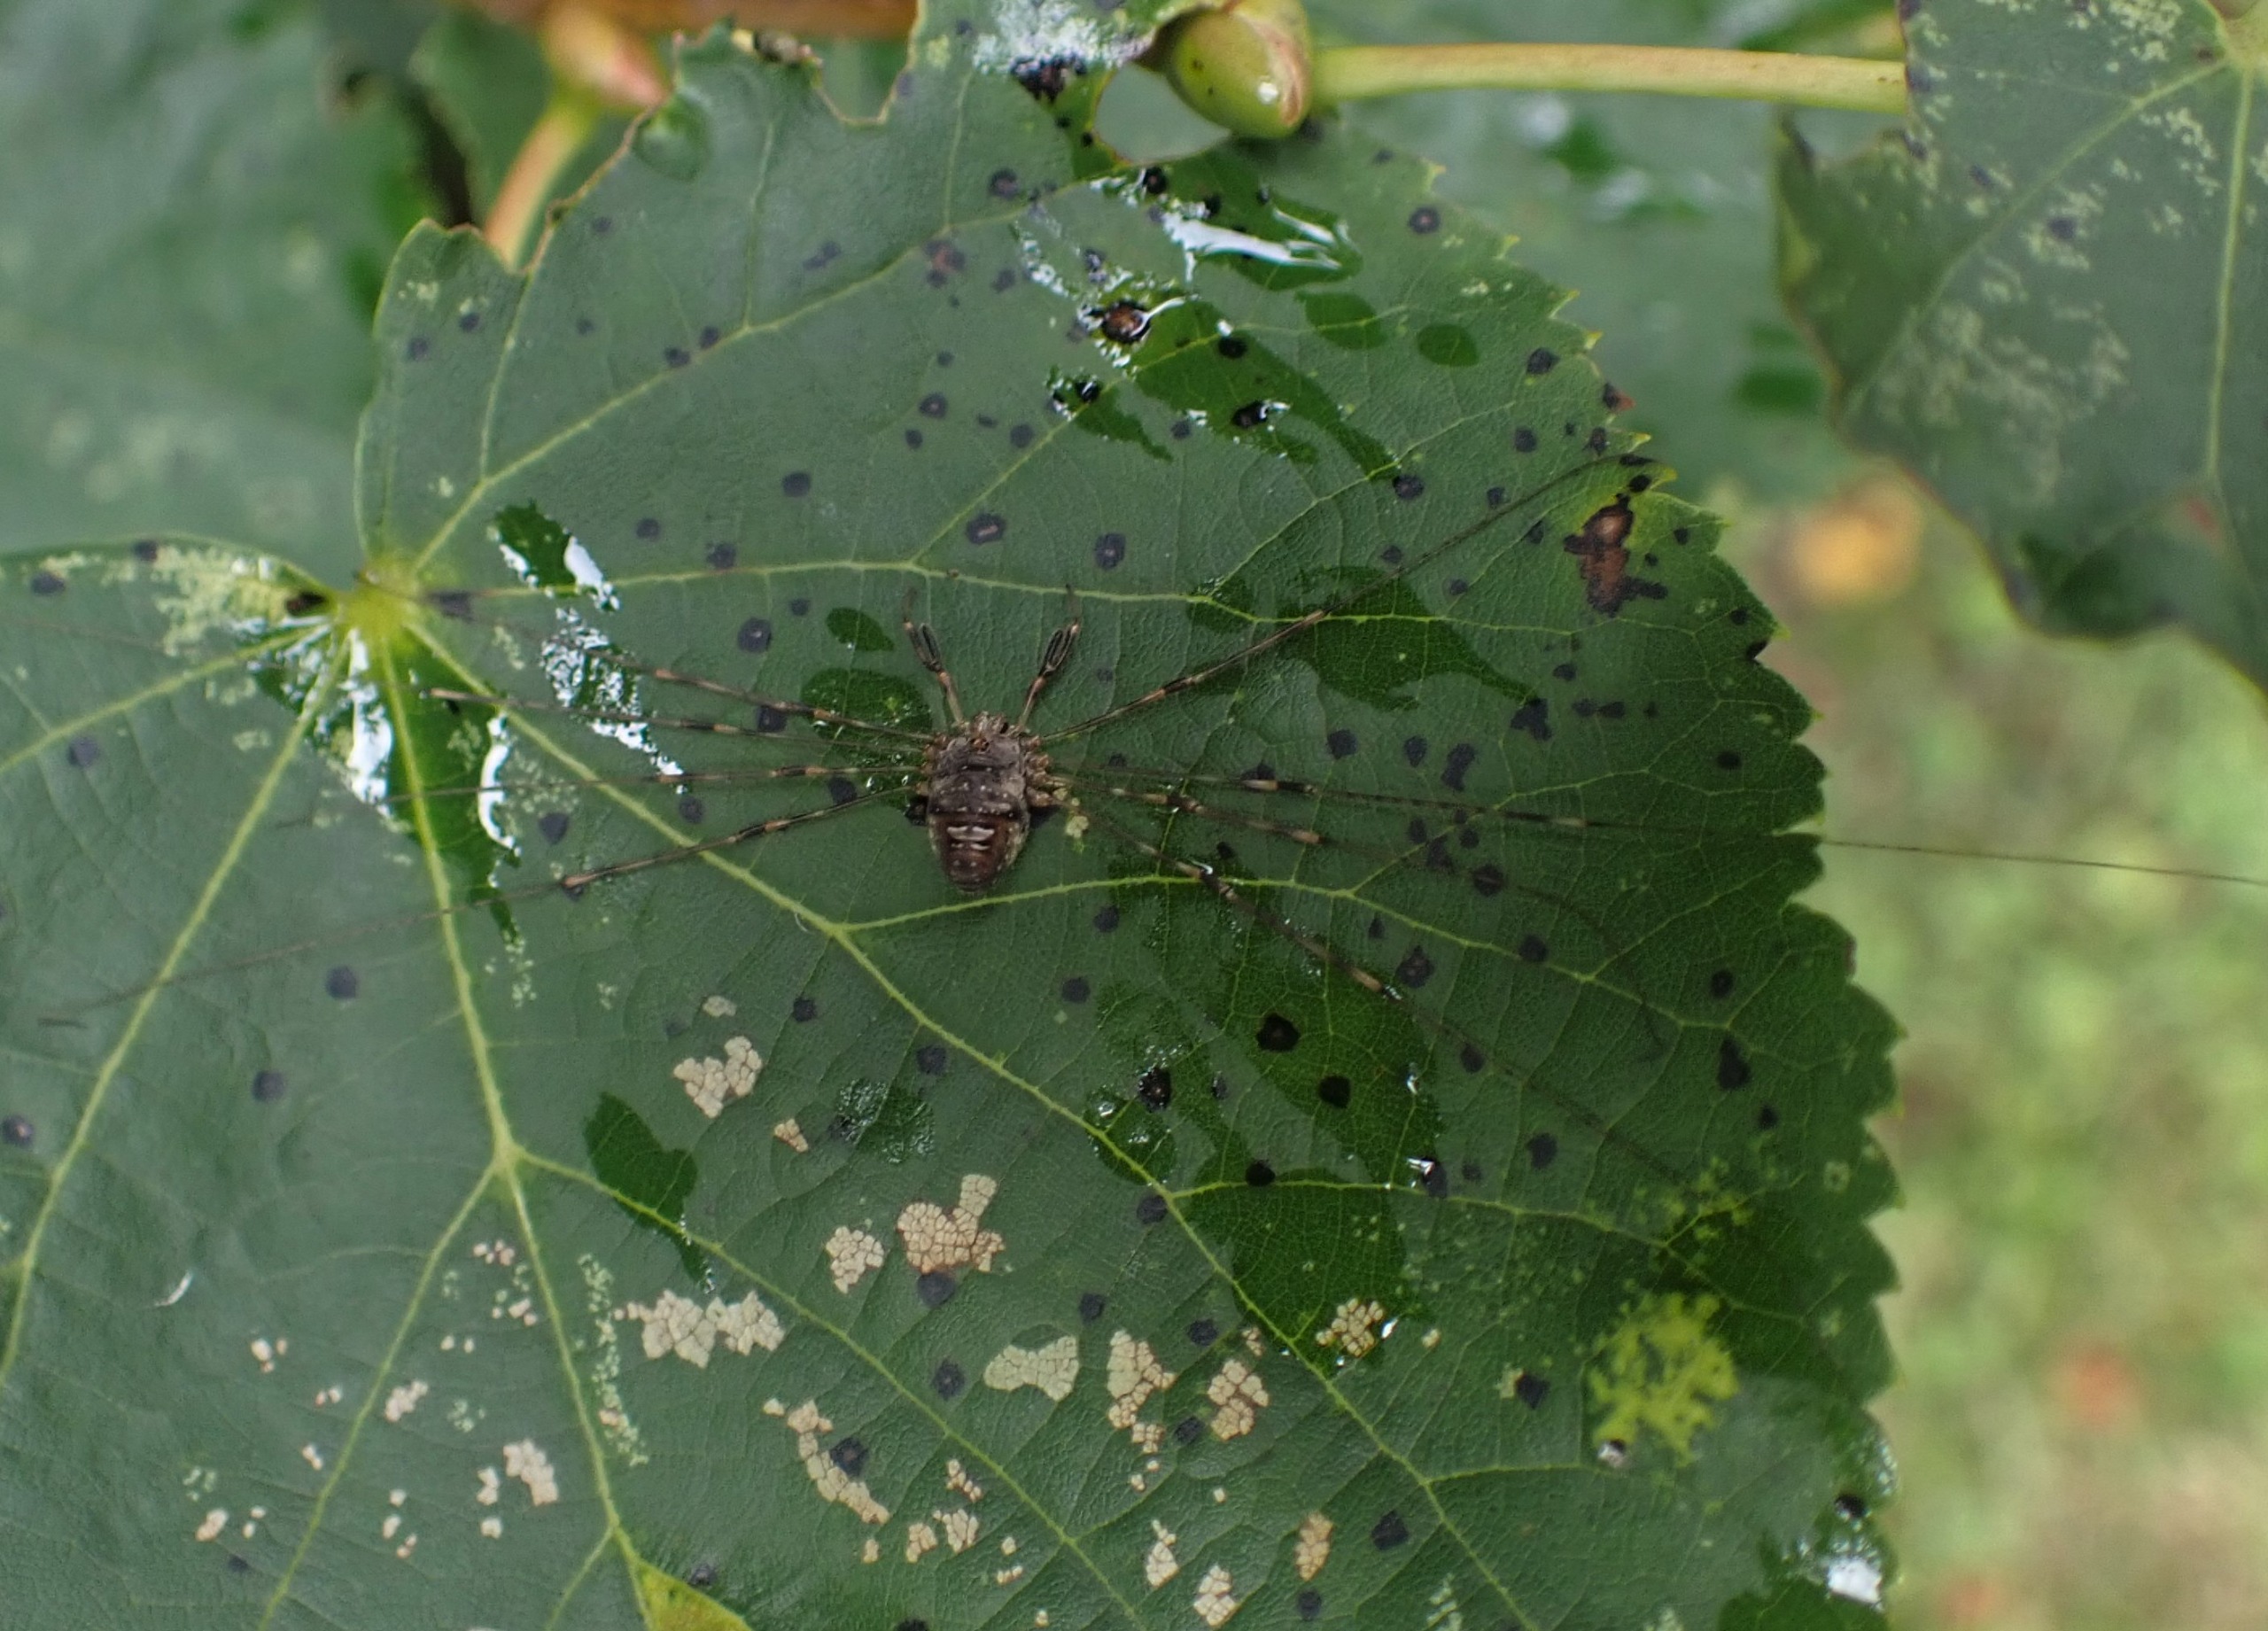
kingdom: Animalia
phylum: Arthropoda
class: Arachnida
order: Opiliones
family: Phalangiidae
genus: Dicranopalpus
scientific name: Dicranopalpus ramosus
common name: Gaffelmejer
